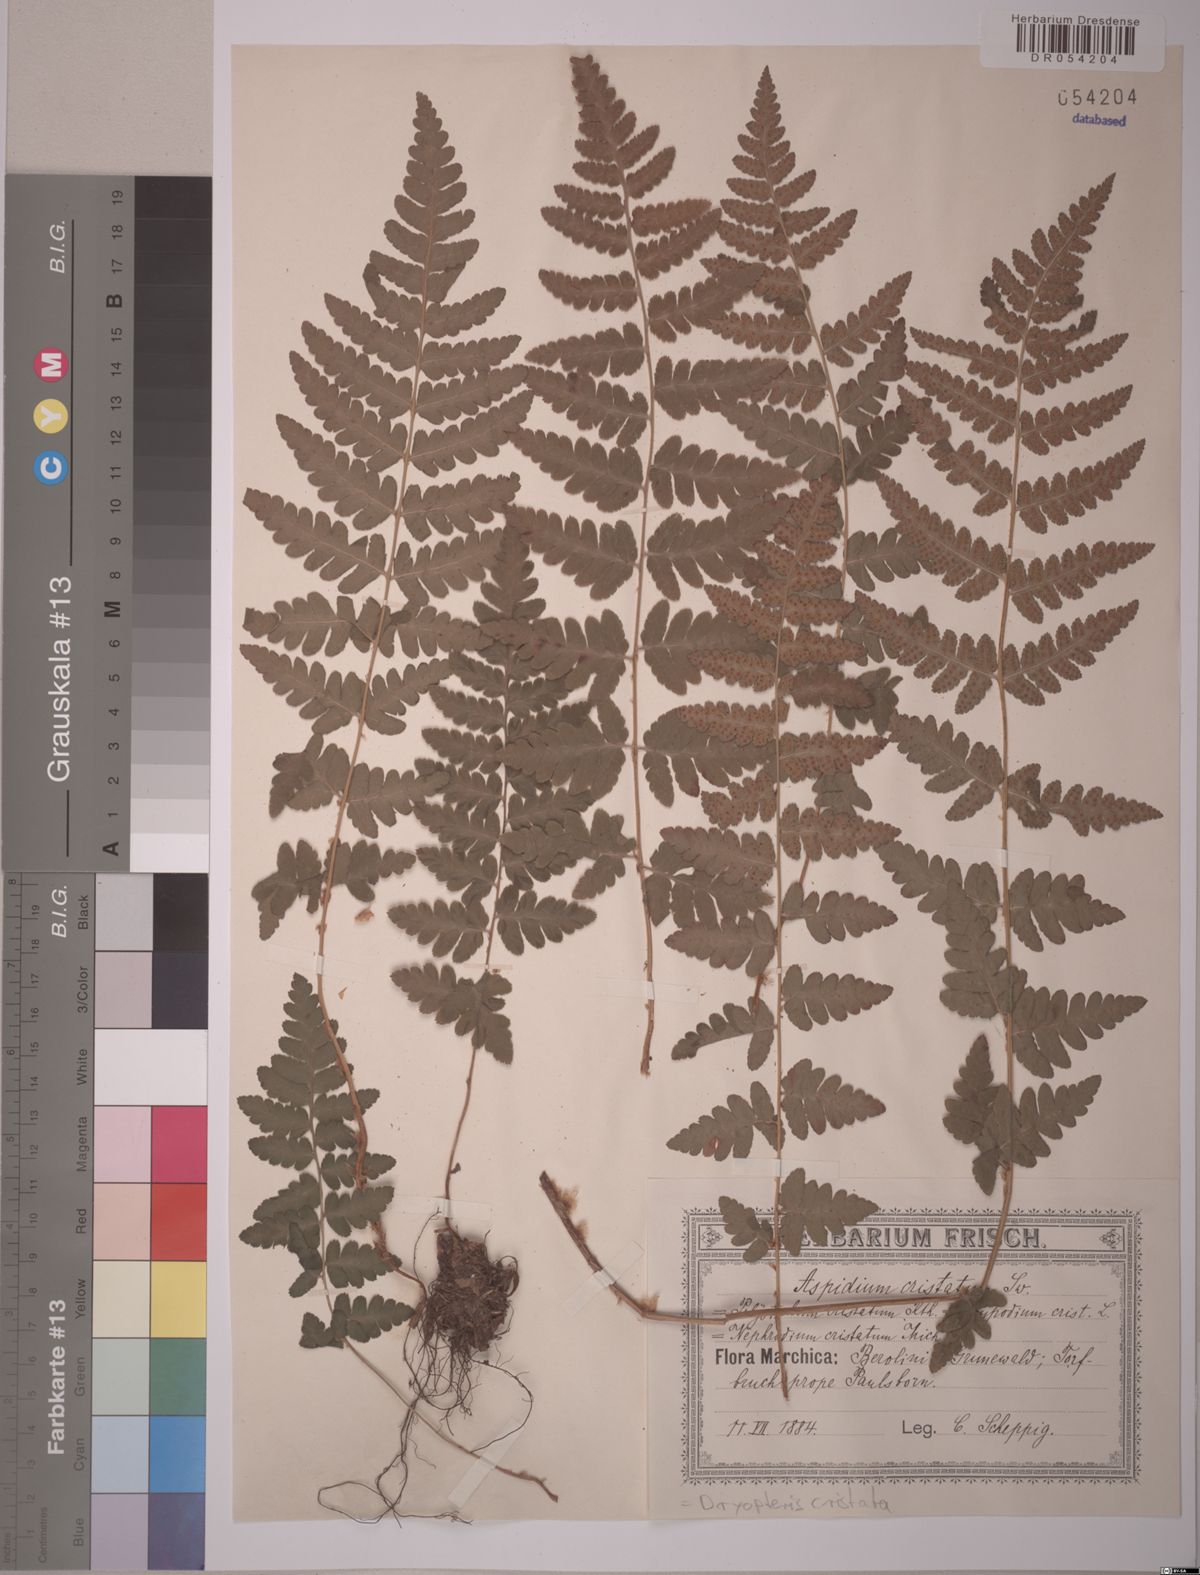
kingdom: Plantae
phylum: Tracheophyta
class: Polypodiopsida
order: Polypodiales
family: Dryopteridaceae
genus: Dryopteris
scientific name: Dryopteris cristata
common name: Crested wood fern
